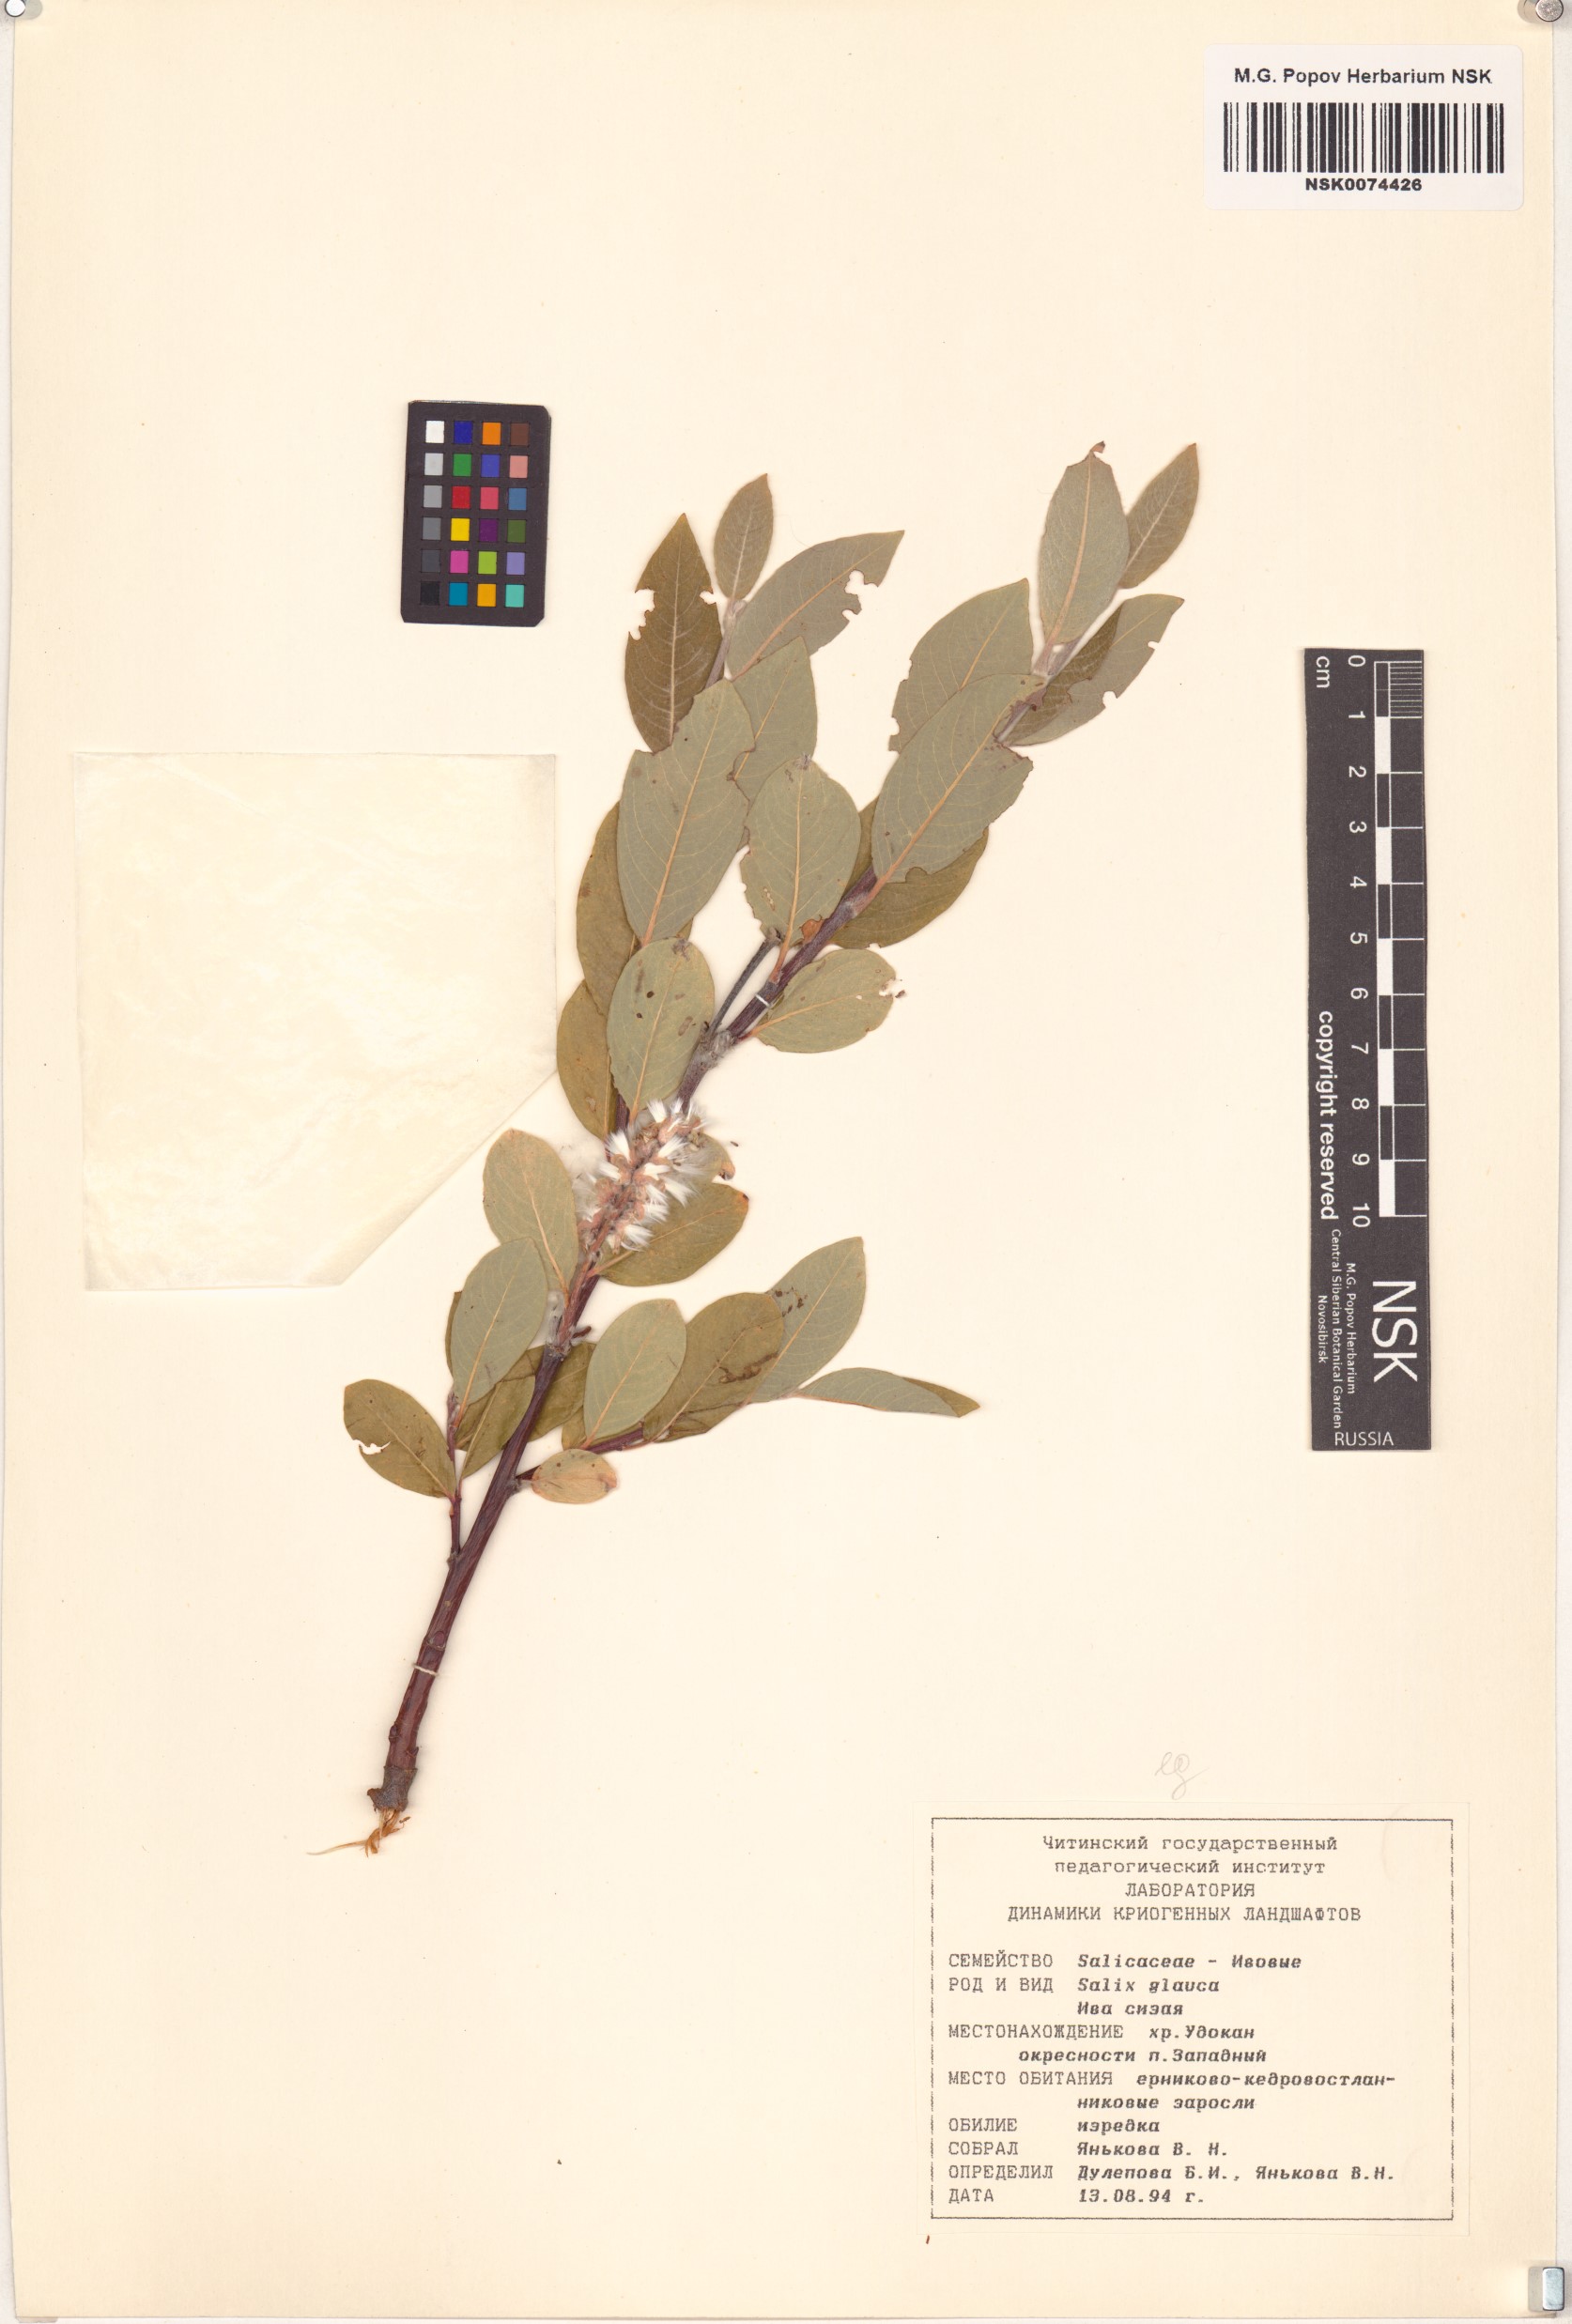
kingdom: Plantae
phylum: Tracheophyta
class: Magnoliopsida
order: Malpighiales
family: Salicaceae
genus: Salix
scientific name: Salix glauca
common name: Glaucous willow
